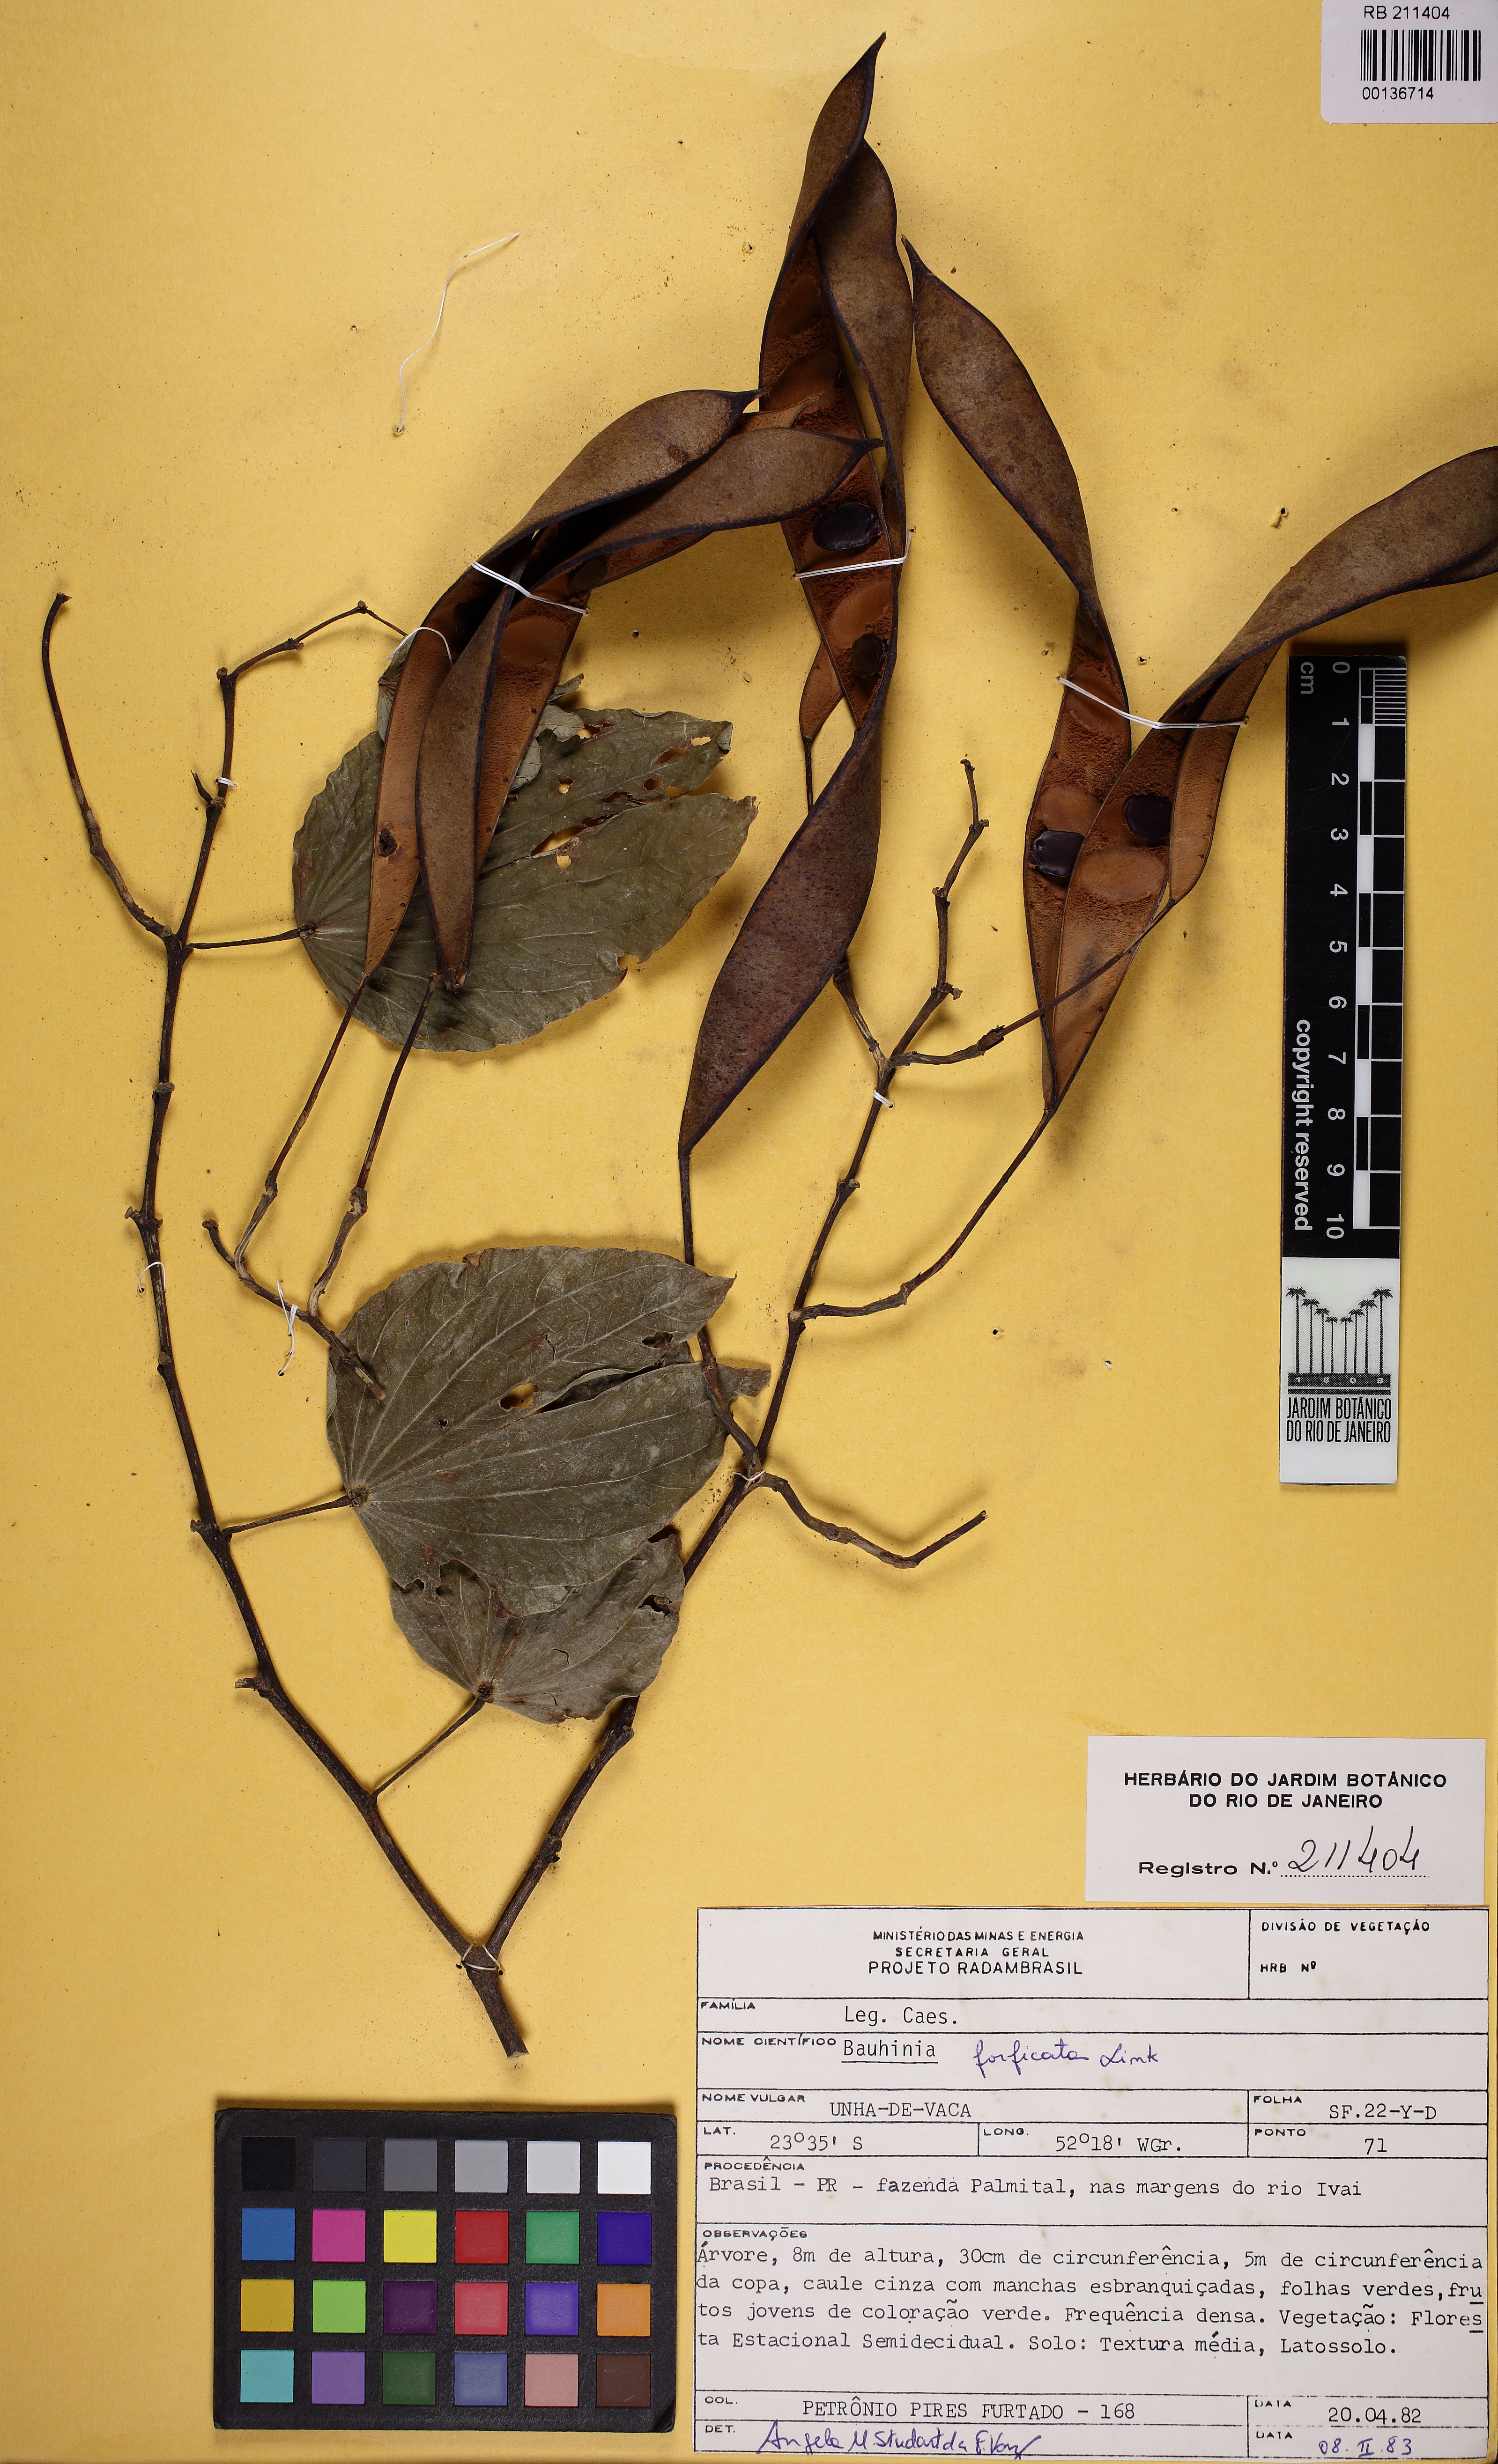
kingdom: Plantae
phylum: Tracheophyta
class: Magnoliopsida
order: Fabales
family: Fabaceae
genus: Bauhinia
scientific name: Bauhinia forficata
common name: Orchid tree
